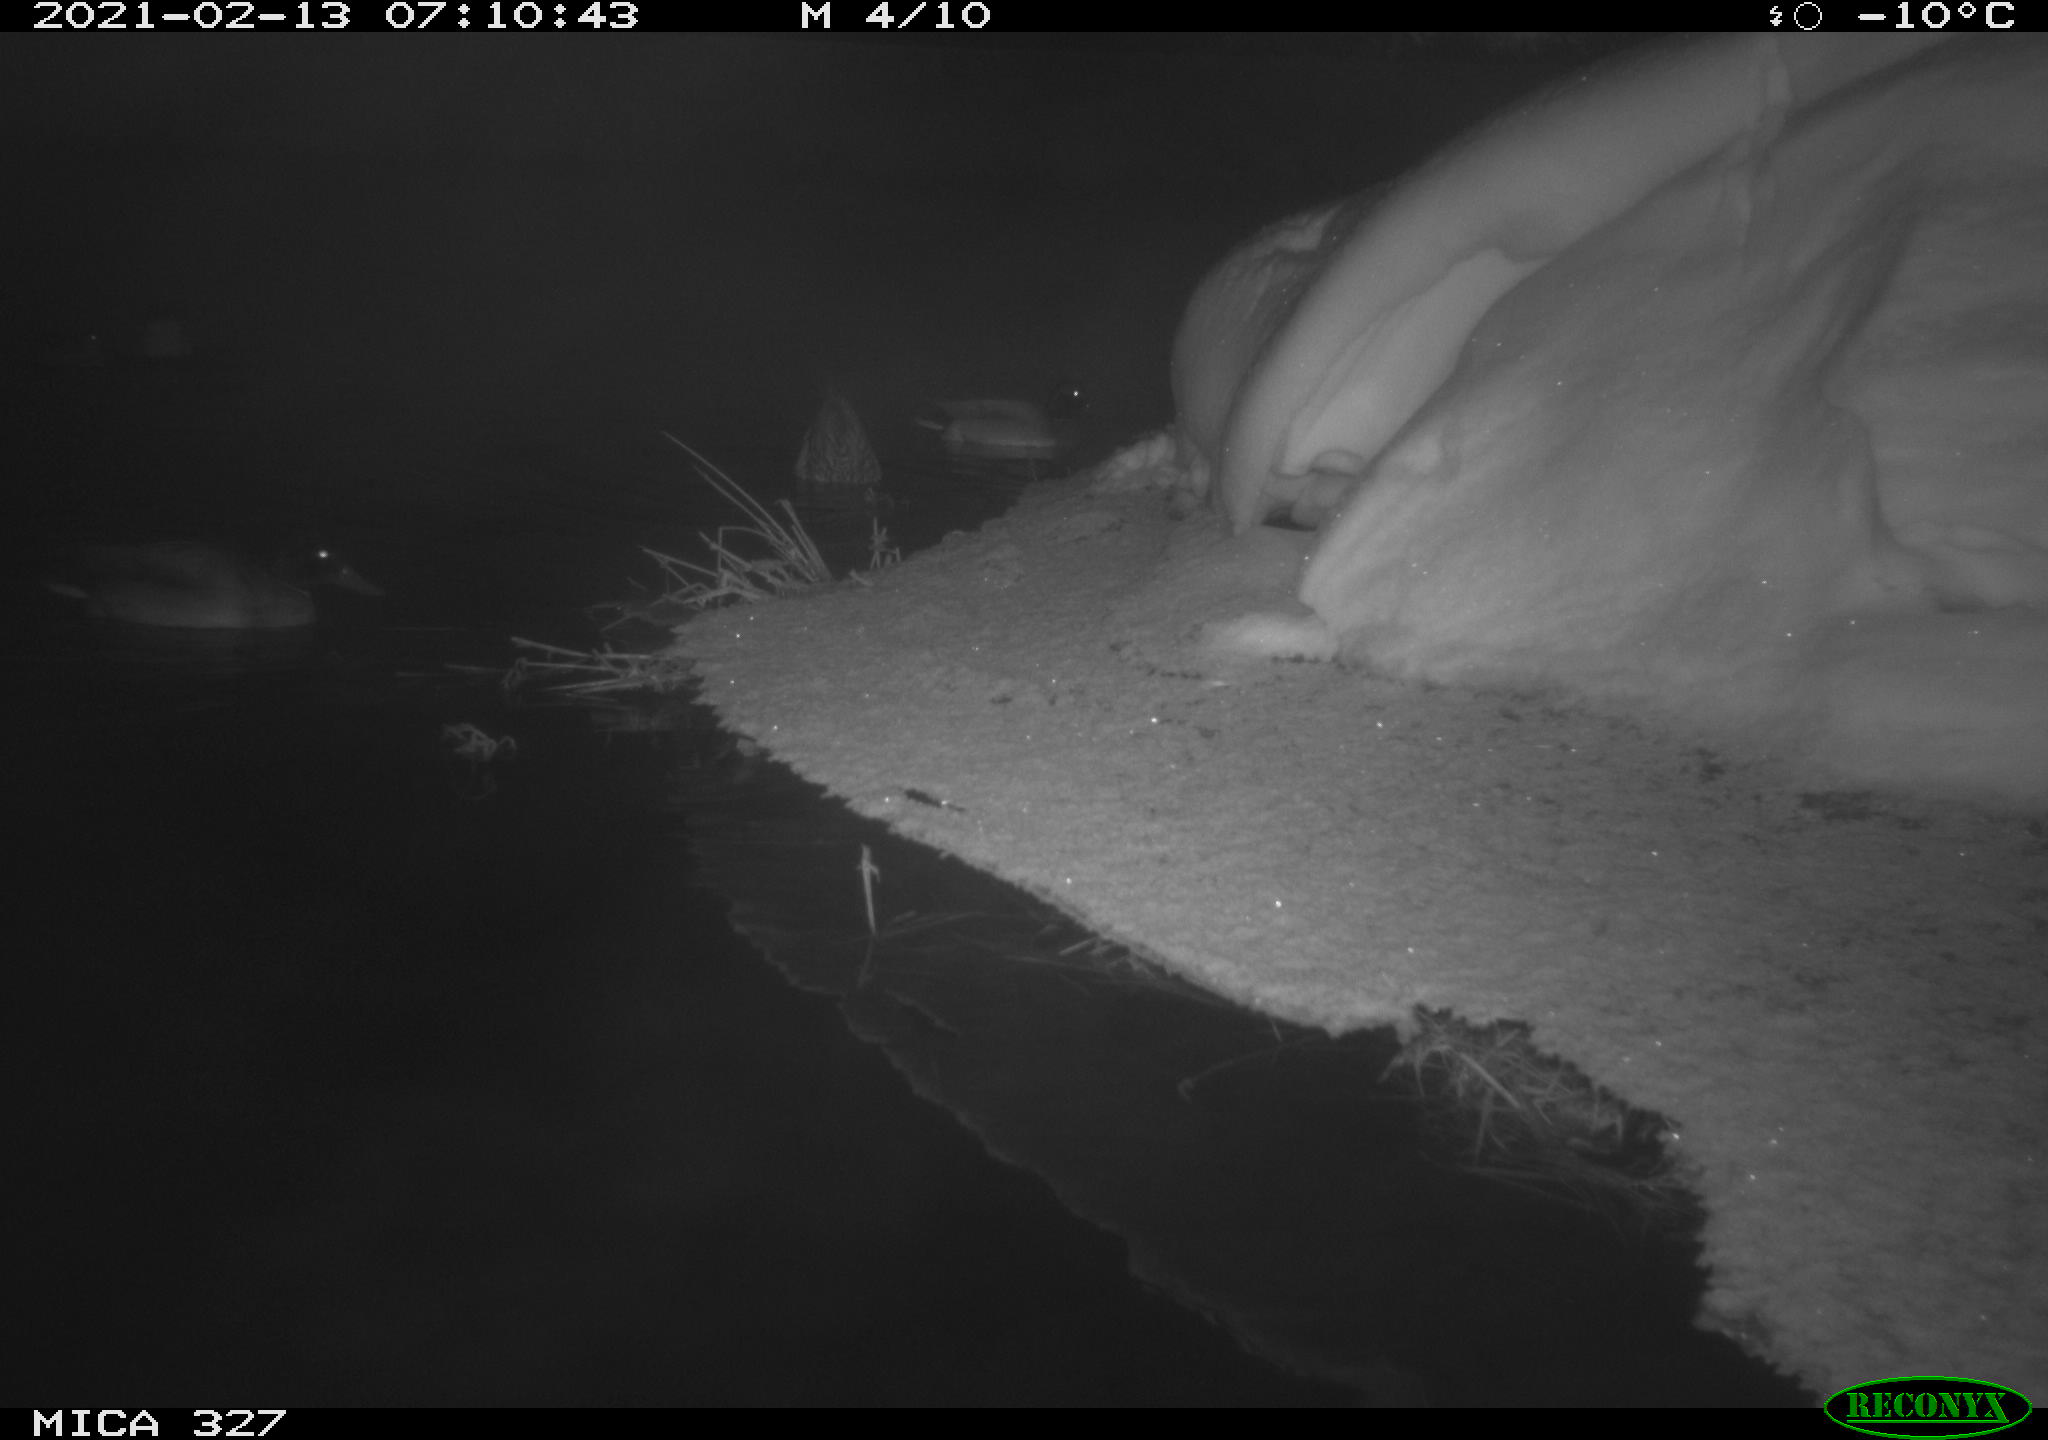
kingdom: Animalia
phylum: Chordata
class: Aves
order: Anseriformes
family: Anatidae
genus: Anas
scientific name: Anas platyrhynchos
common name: Mallard
